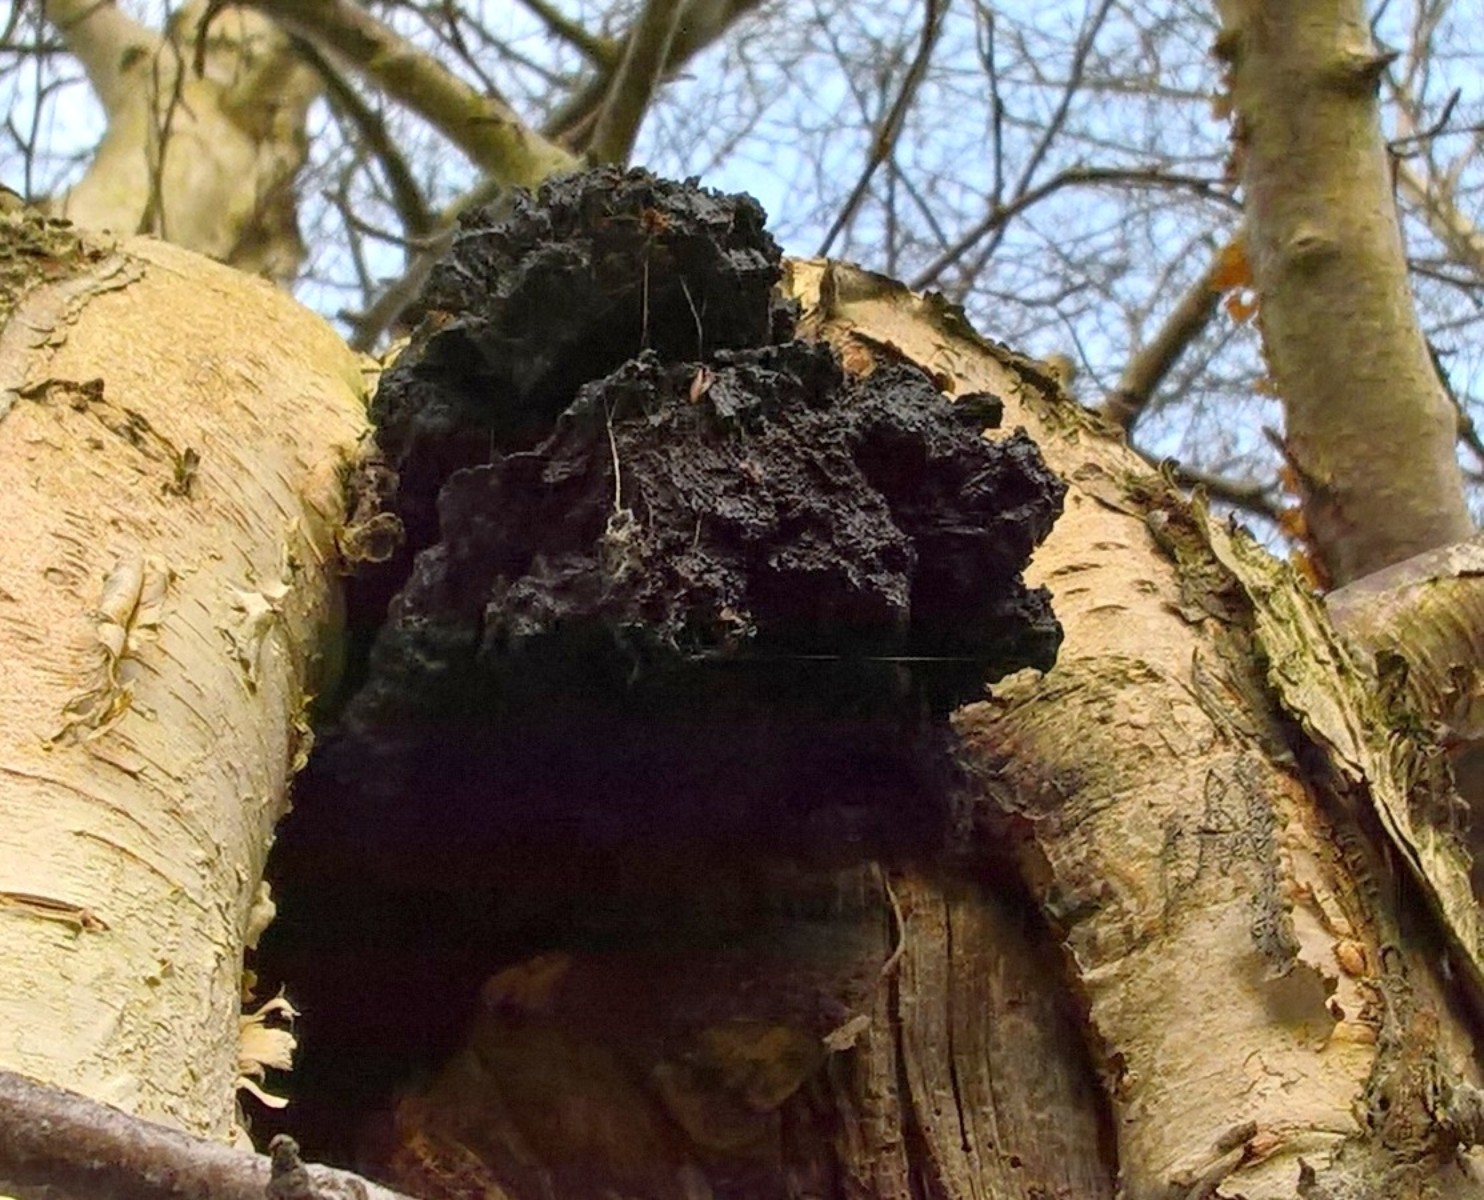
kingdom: Fungi
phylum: Basidiomycota
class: Agaricomycetes
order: Hymenochaetales
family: Hymenochaetaceae
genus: Inonotus
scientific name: Inonotus obliquus
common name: birke-spejlporesvamp
